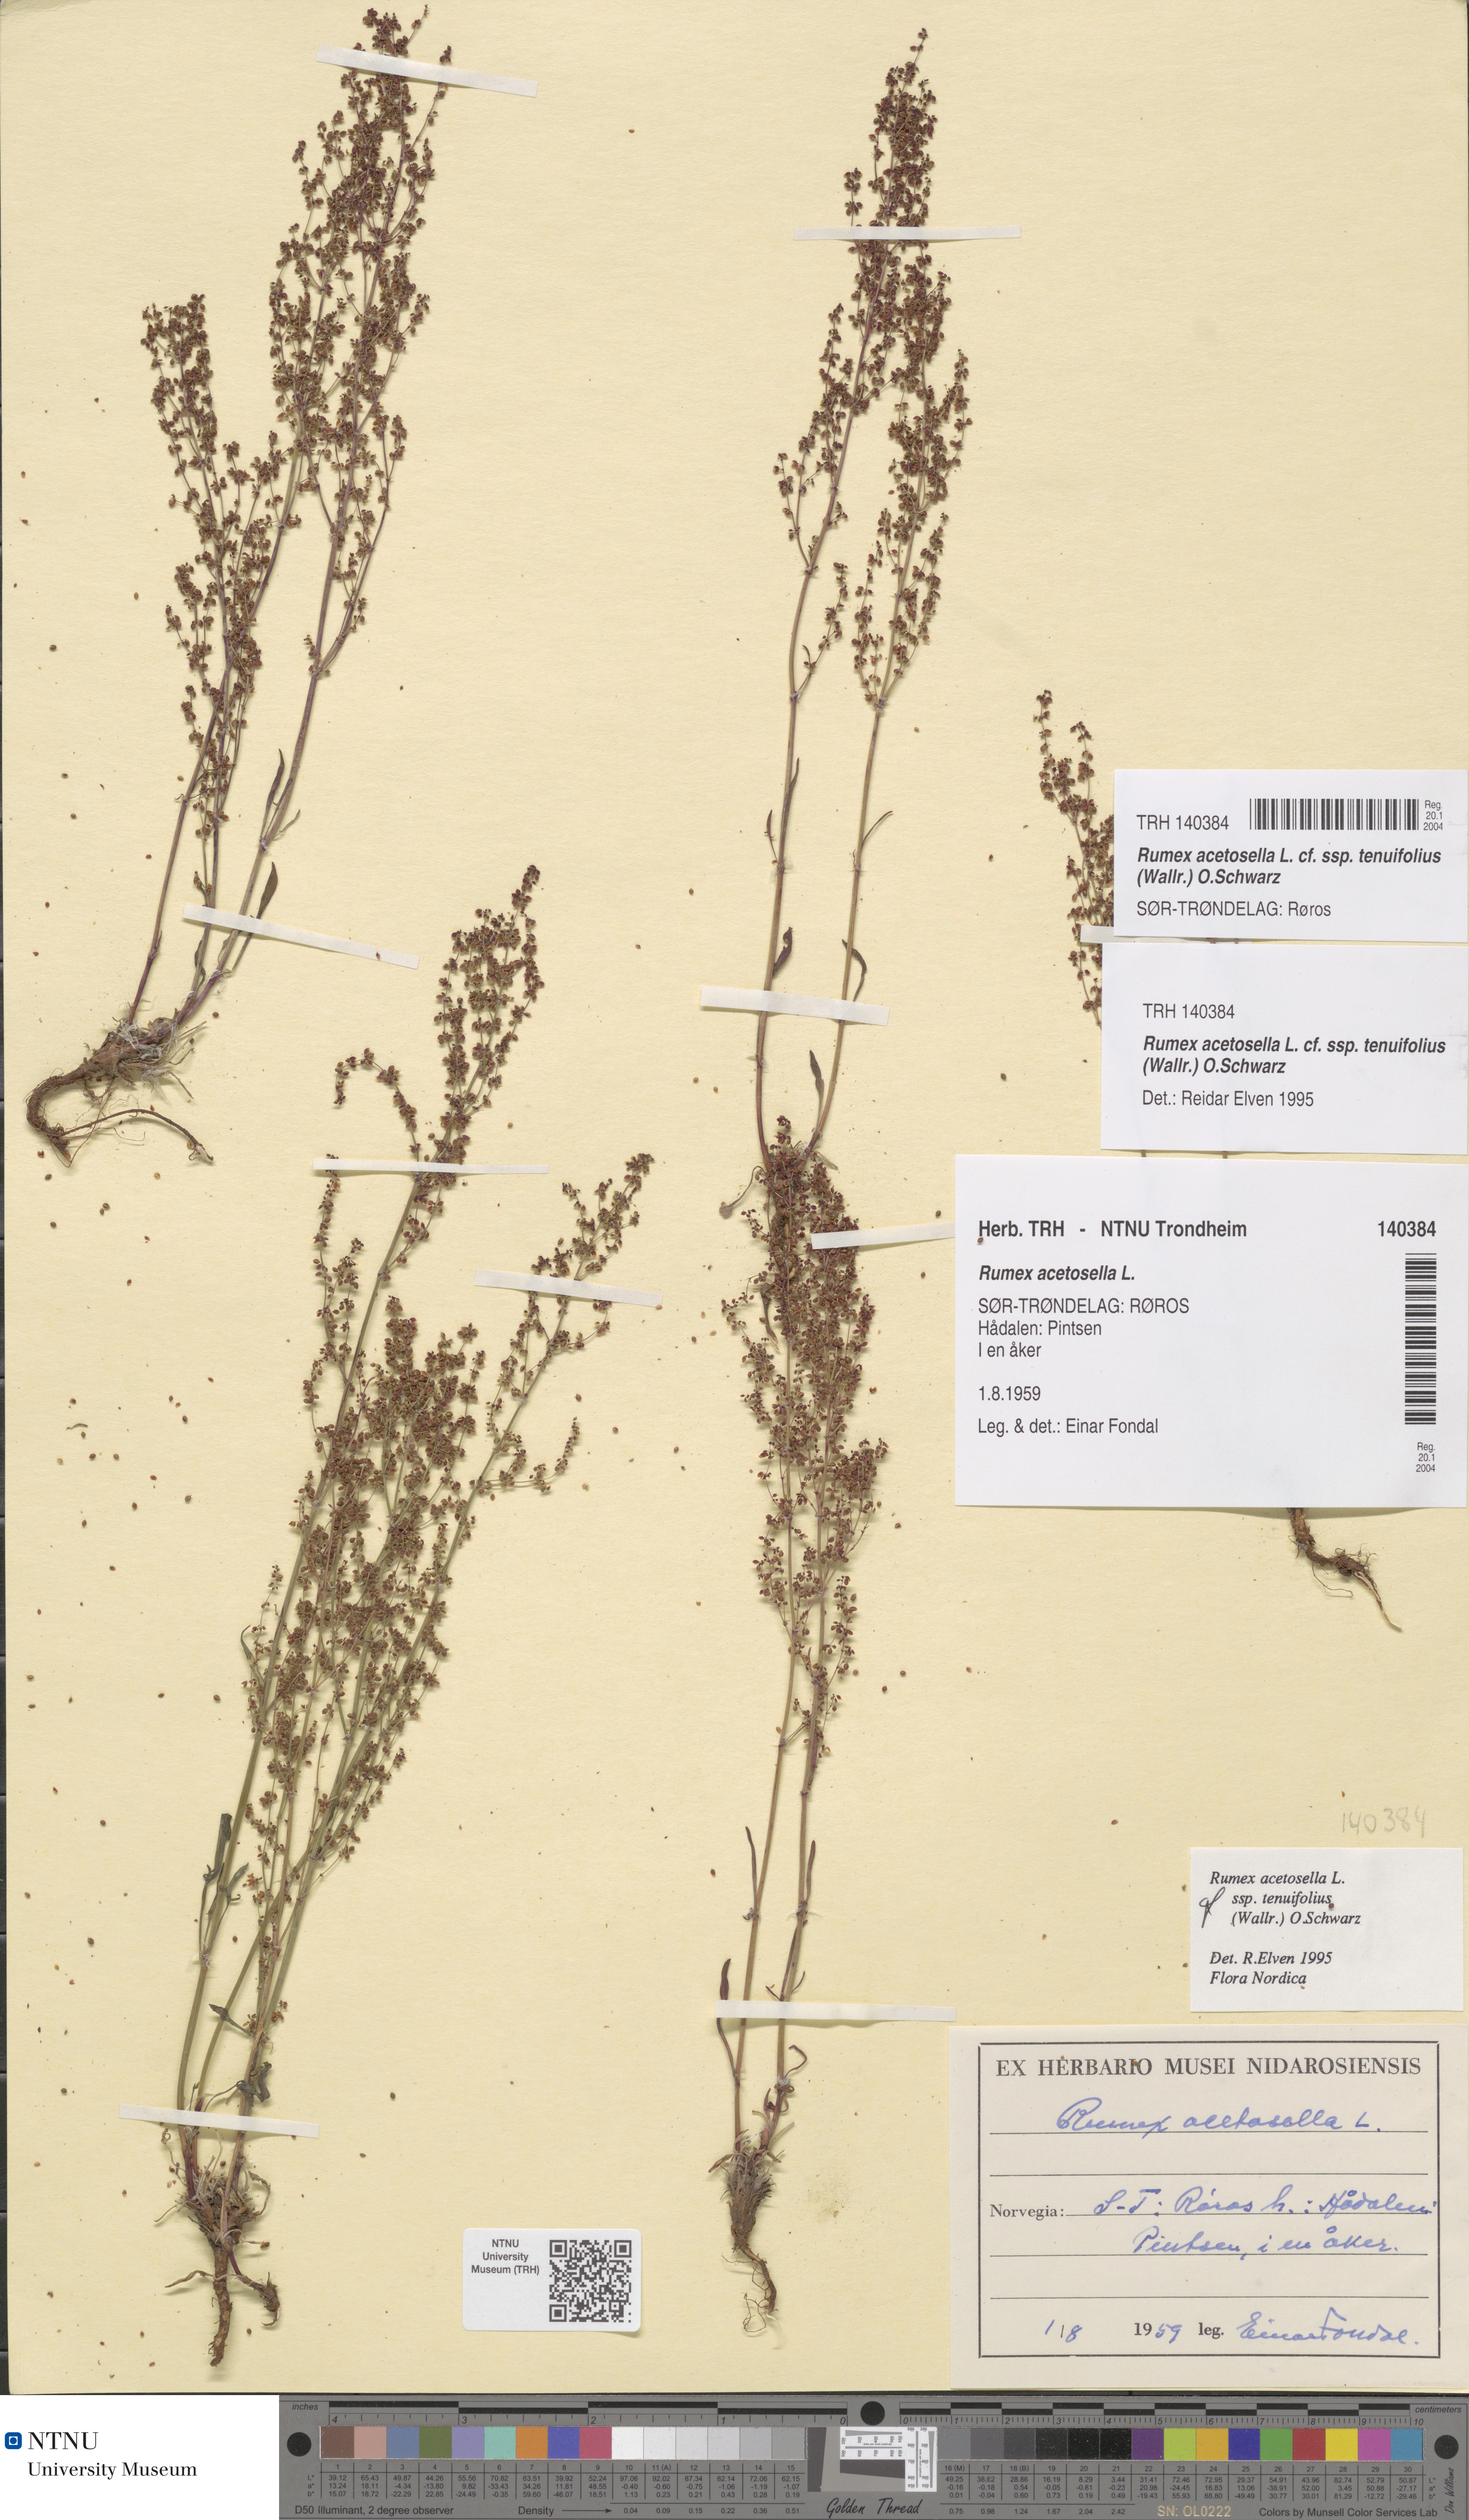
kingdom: Plantae
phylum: Tracheophyta
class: Magnoliopsida
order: Caryophyllales
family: Polygonaceae
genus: Rumex
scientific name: Rumex acetosella
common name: Common sheep sorrel
